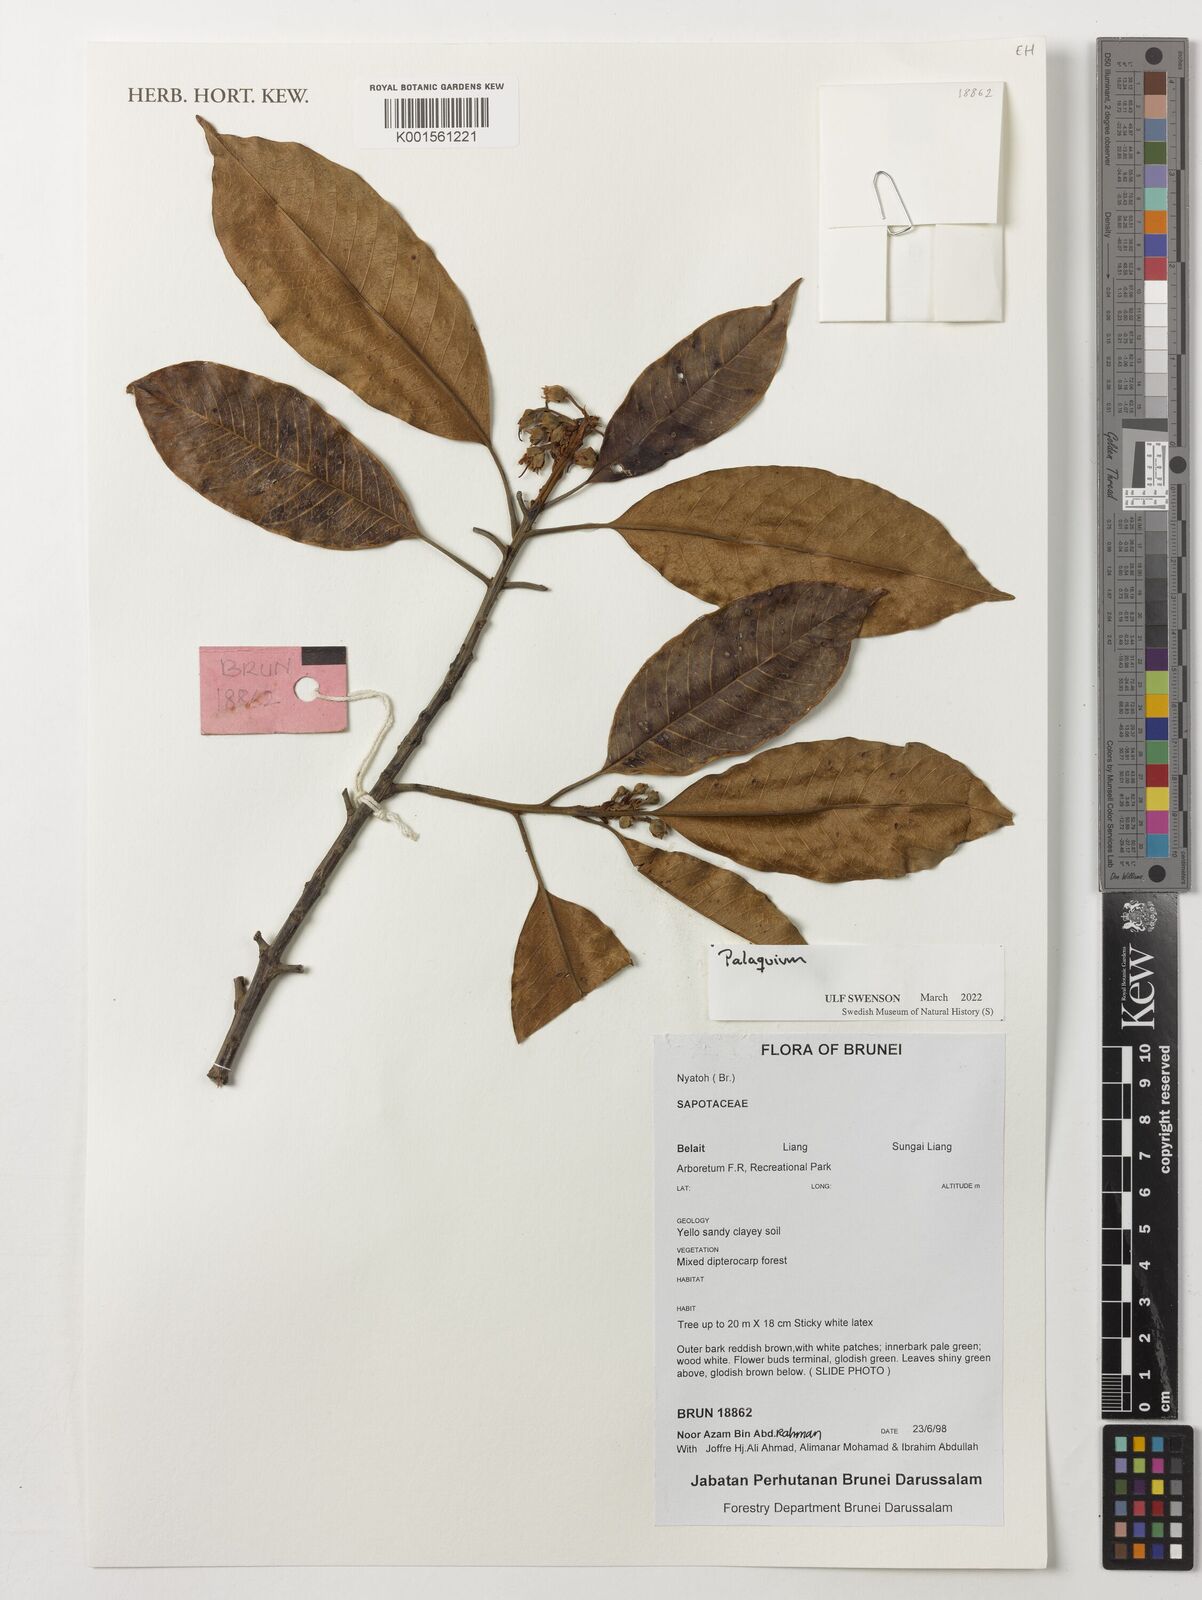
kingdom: Plantae
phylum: Tracheophyta
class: Magnoliopsida
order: Ericales
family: Sapotaceae
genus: Palaquium
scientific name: Palaquium
